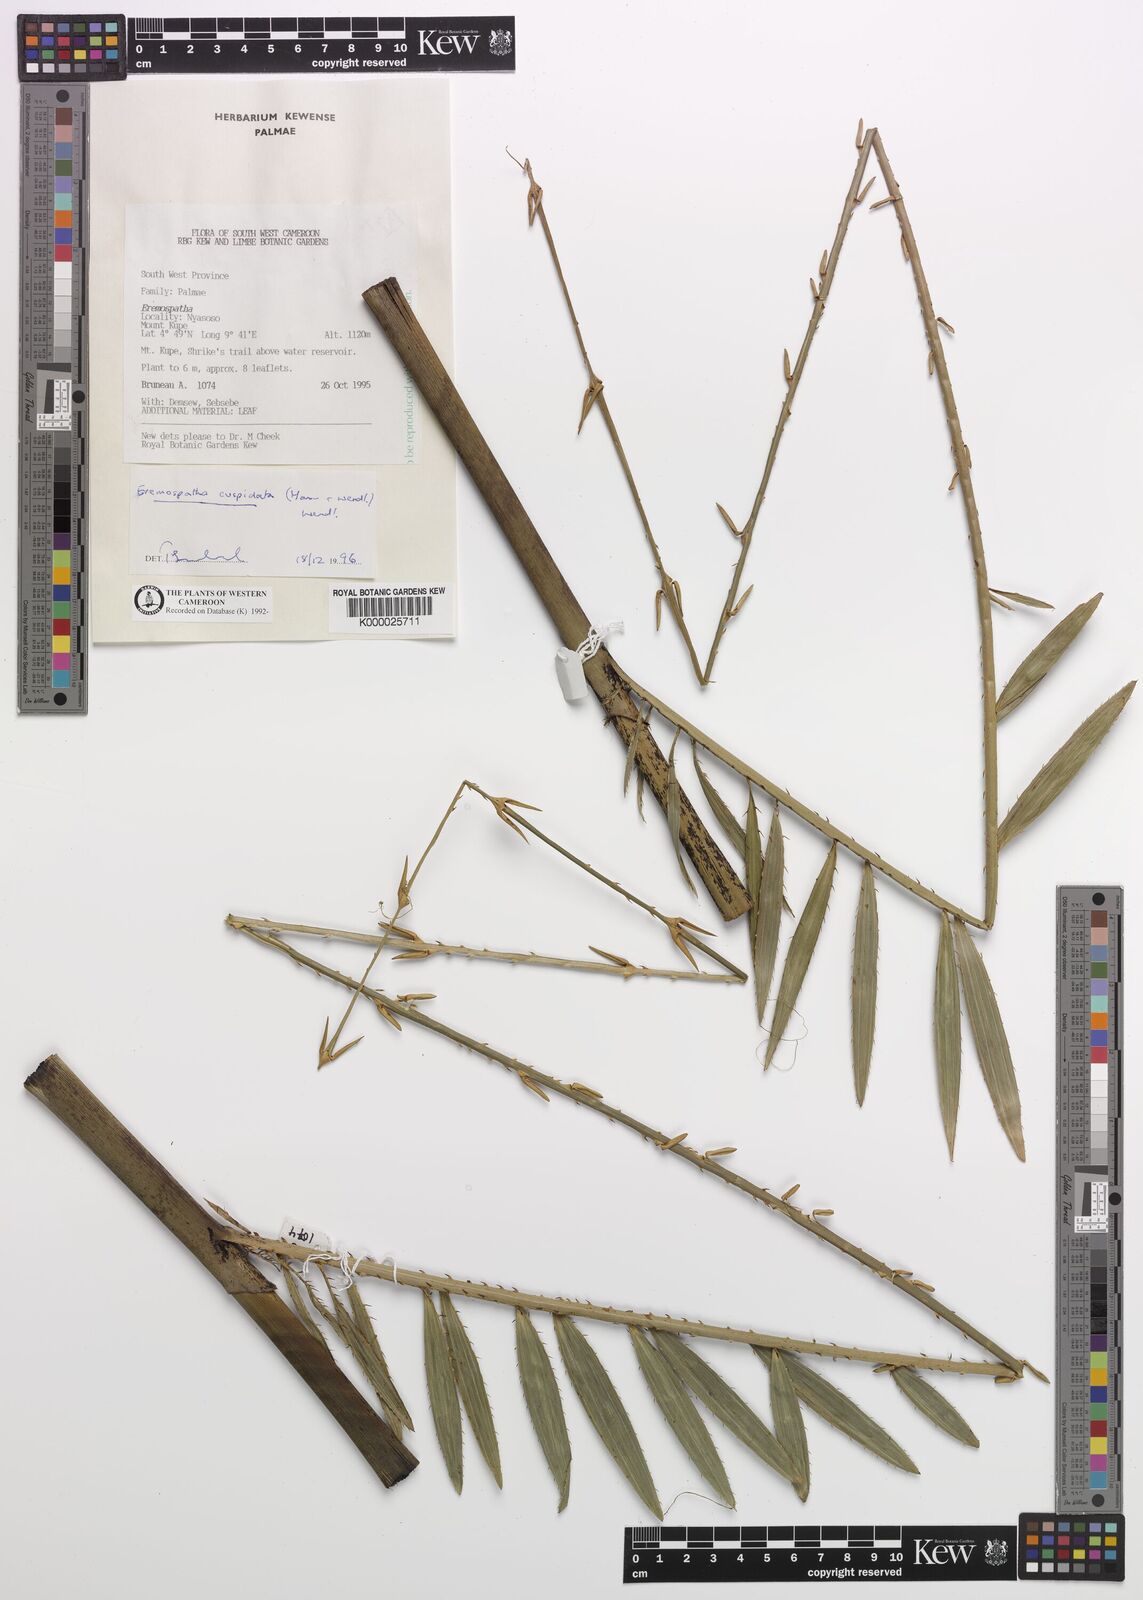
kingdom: Plantae
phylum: Tracheophyta
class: Liliopsida
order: Arecales
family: Arecaceae
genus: Eremospatha
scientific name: Eremospatha cuspidata
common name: Rattan
